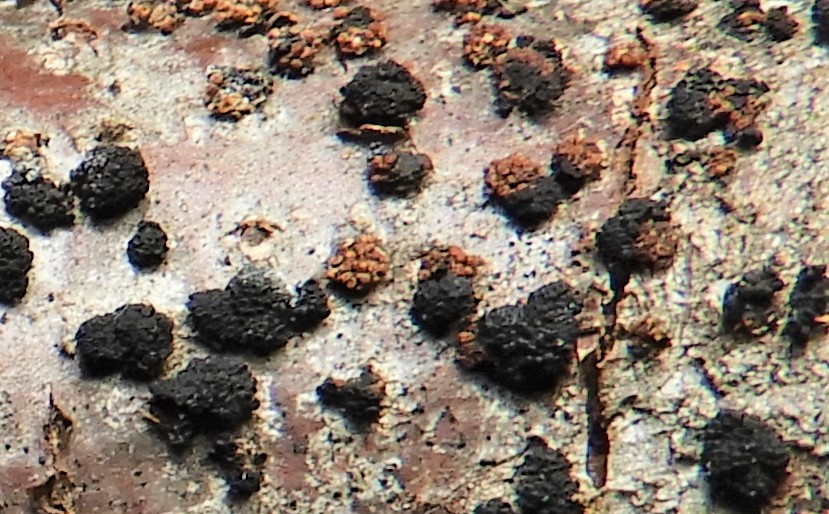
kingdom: Fungi
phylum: Ascomycota
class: Sordariomycetes
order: Coronophorales
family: Nitschkiaceae
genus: Nitschkia
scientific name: Nitschkia parasitans
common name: snyltende skålkerne
